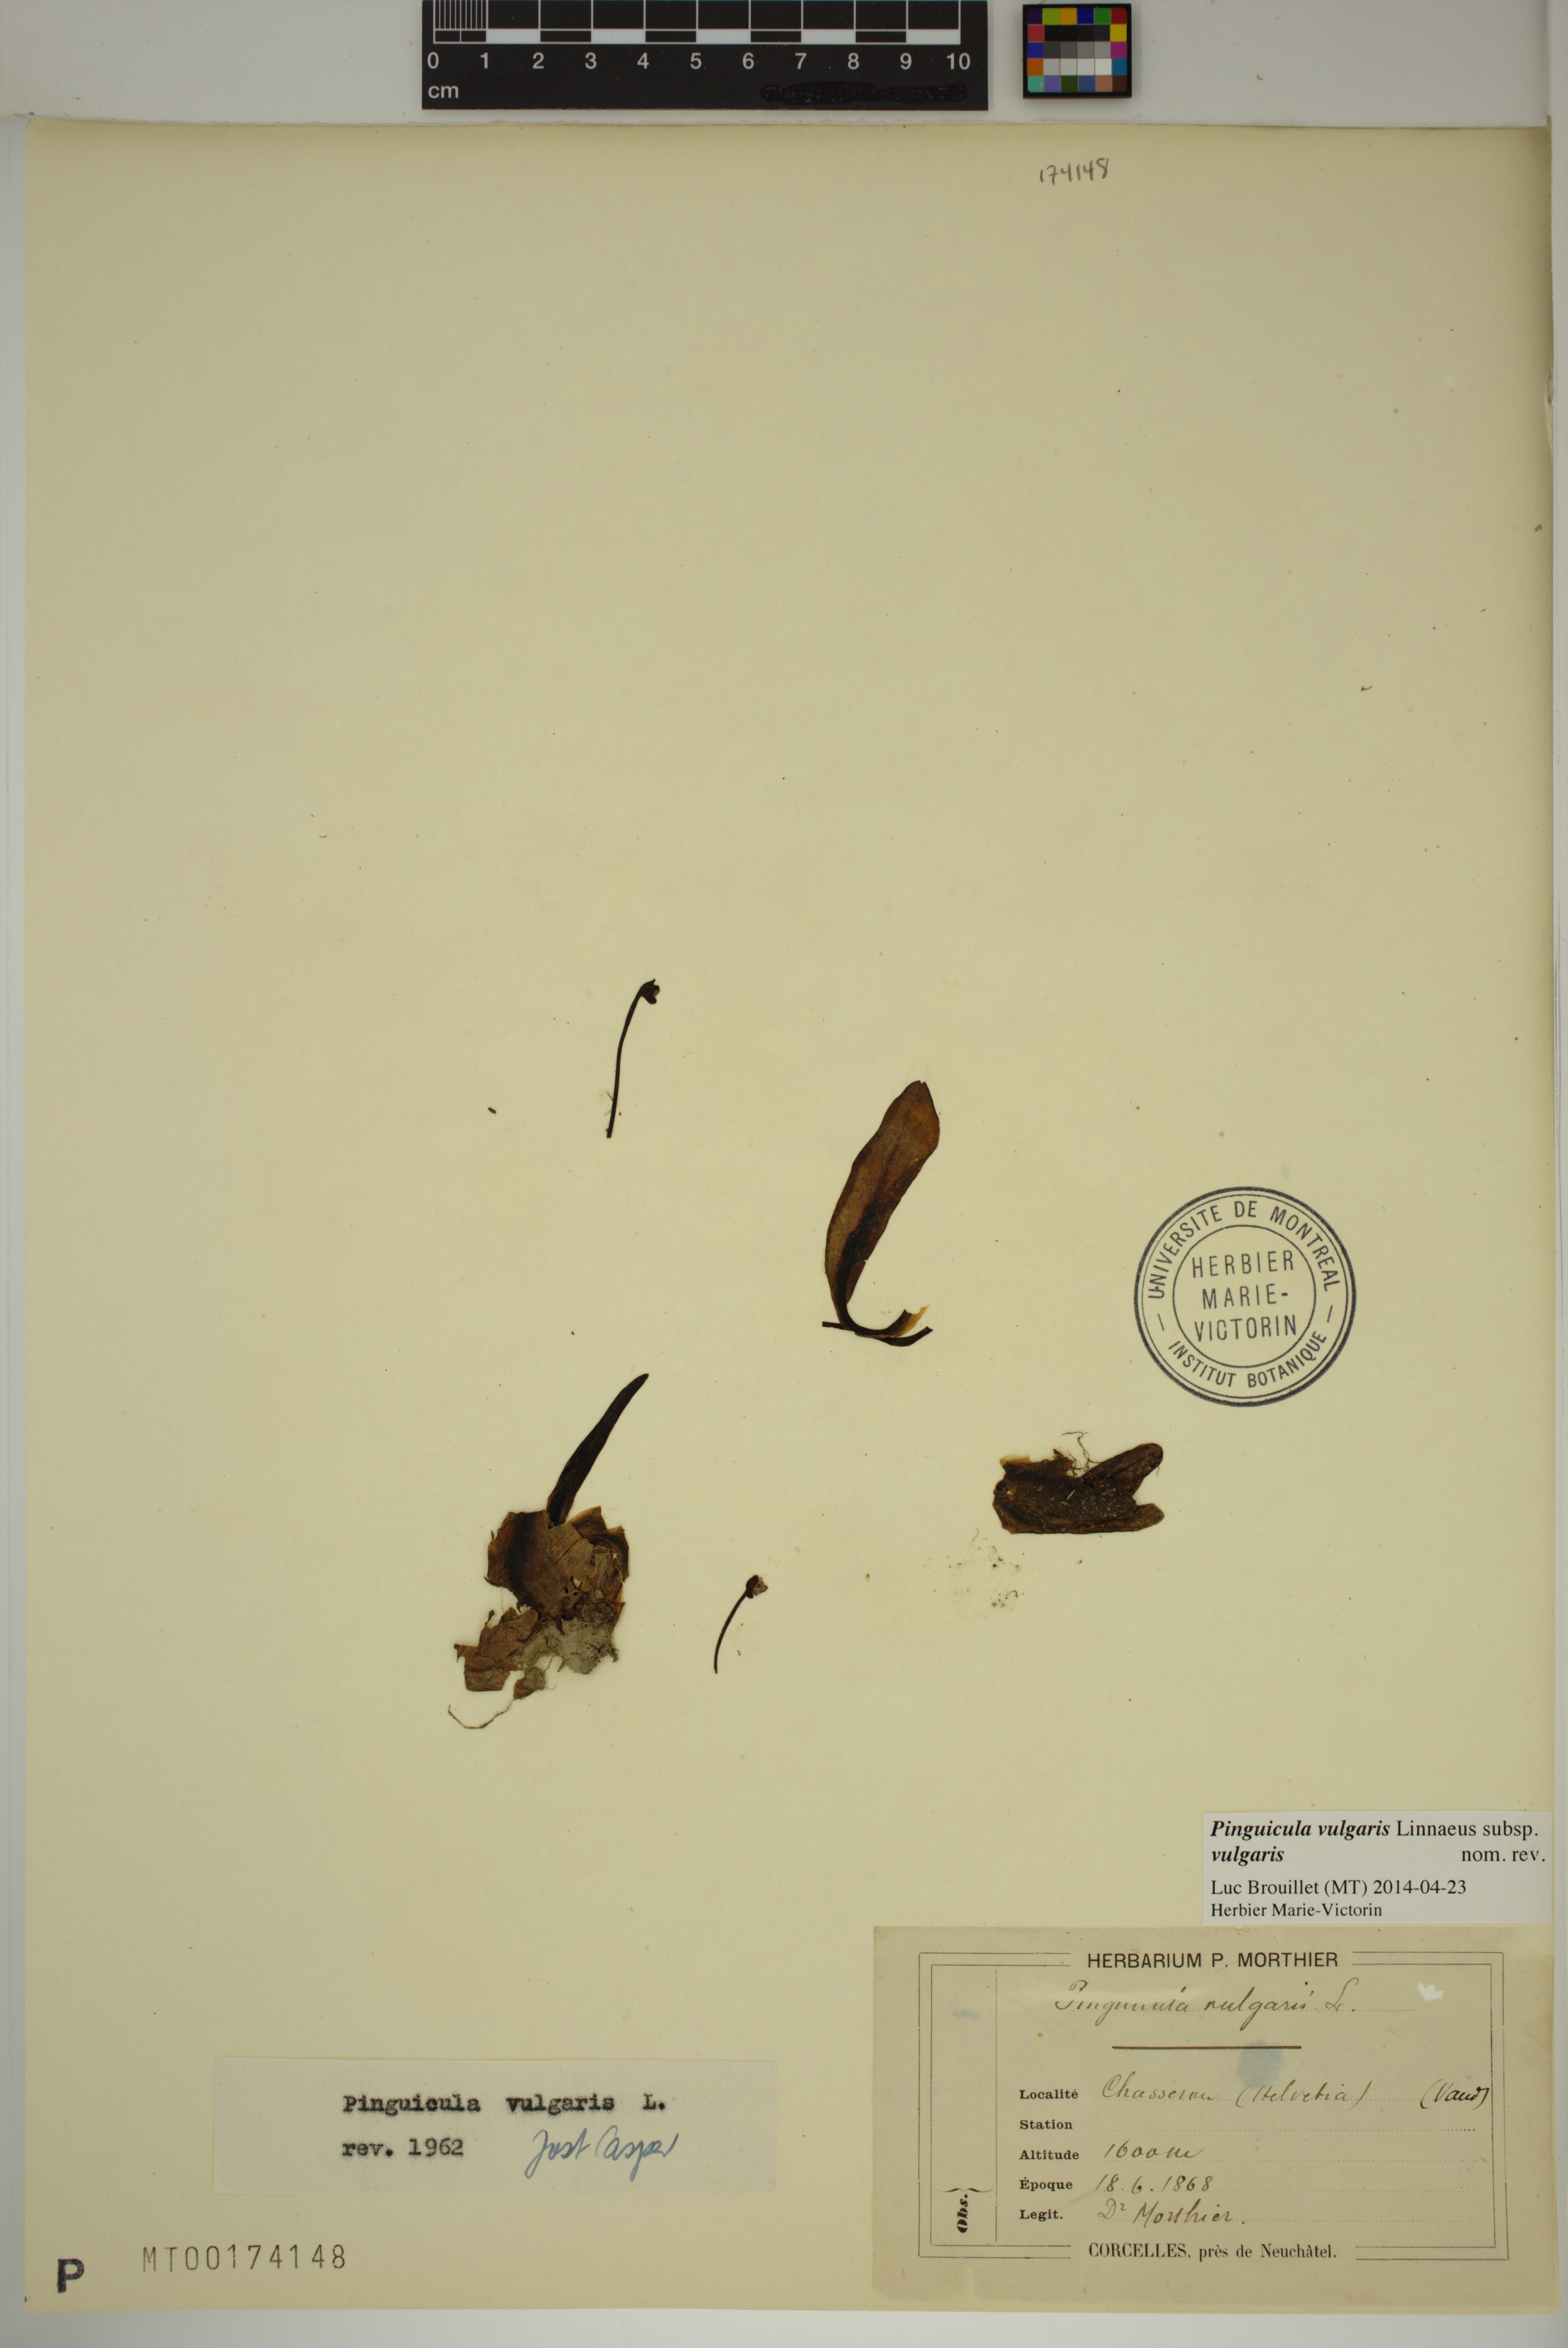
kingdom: Plantae
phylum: Tracheophyta
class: Magnoliopsida
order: Lamiales
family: Lentibulariaceae
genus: Pinguicula
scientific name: Pinguicula vulgaris
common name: Common butterwort
